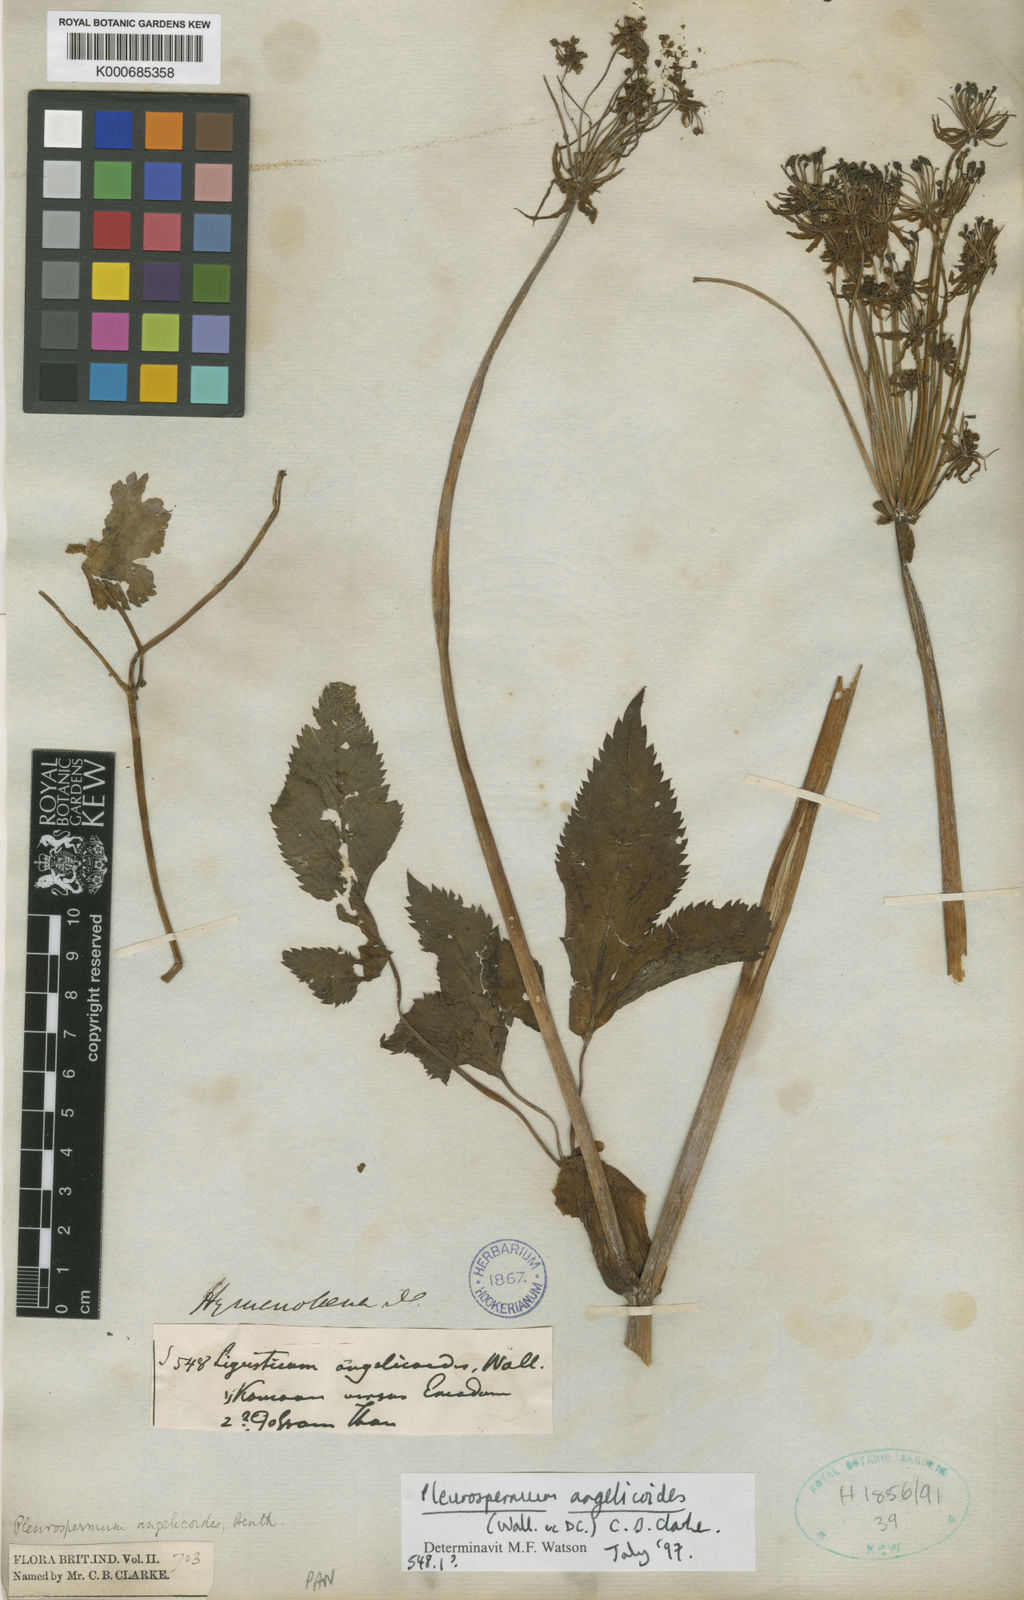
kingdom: Plantae
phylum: Tracheophyta
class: Magnoliopsida
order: Apiales
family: Apiaceae
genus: Pterocyclus
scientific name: Pterocyclus angelicoides
